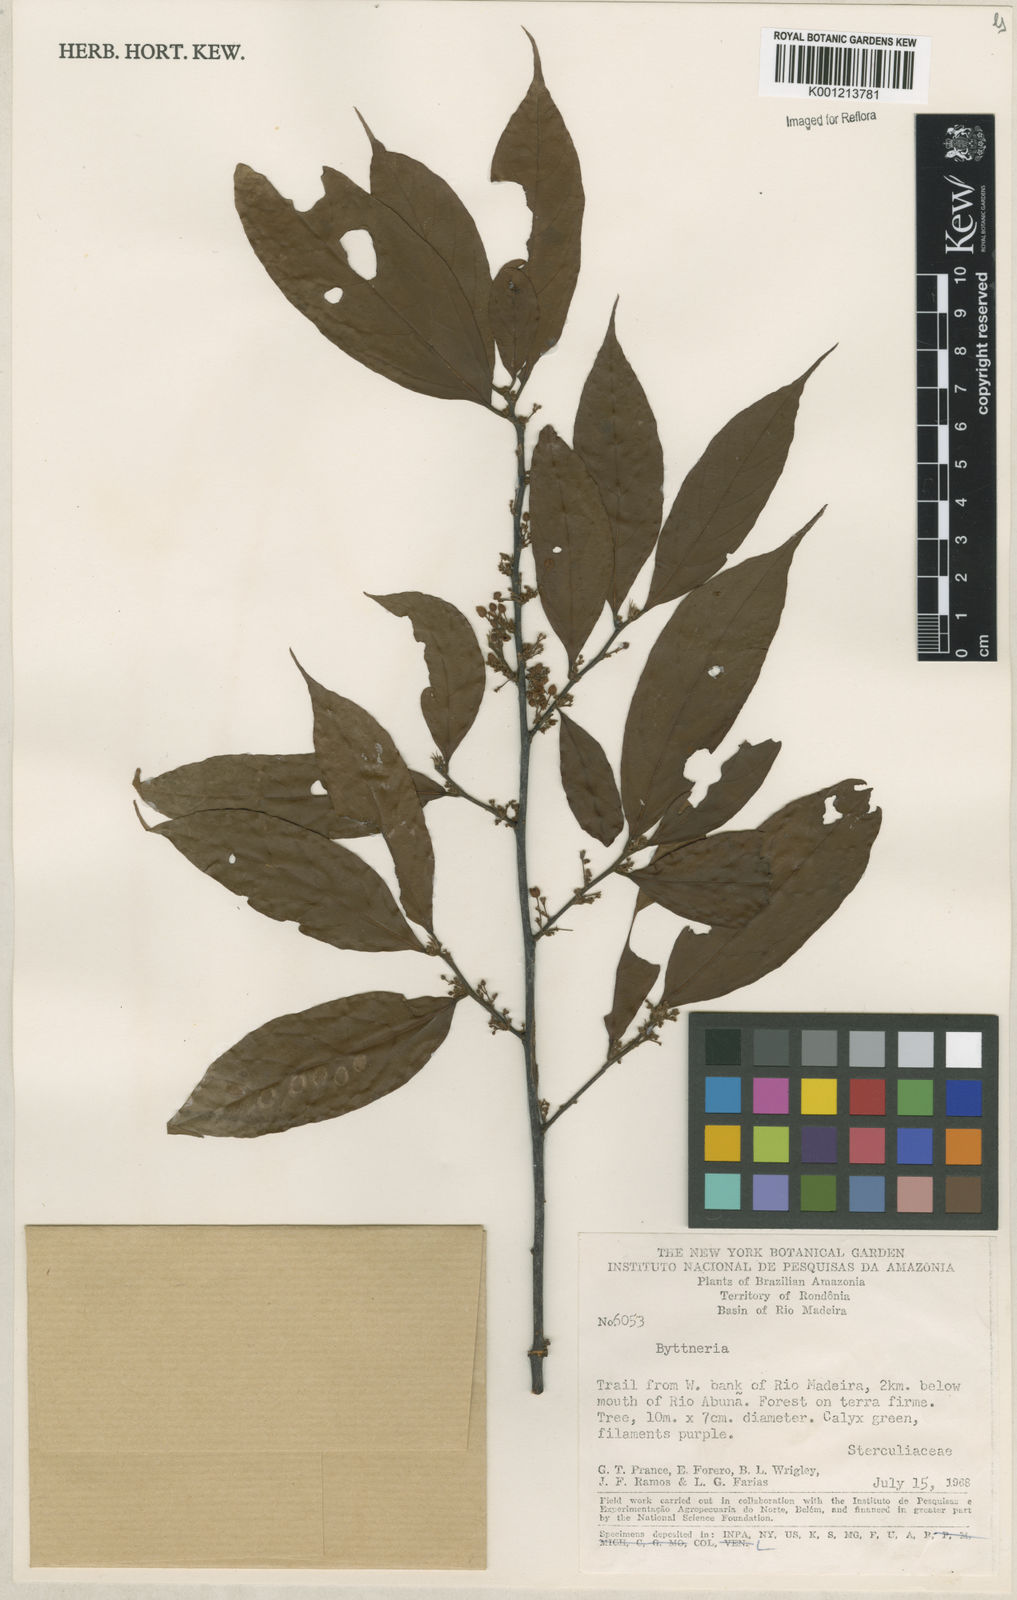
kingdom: Plantae
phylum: Tracheophyta
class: Magnoliopsida
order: Malvales
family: Malvaceae
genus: Byttneria
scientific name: Byttneria
